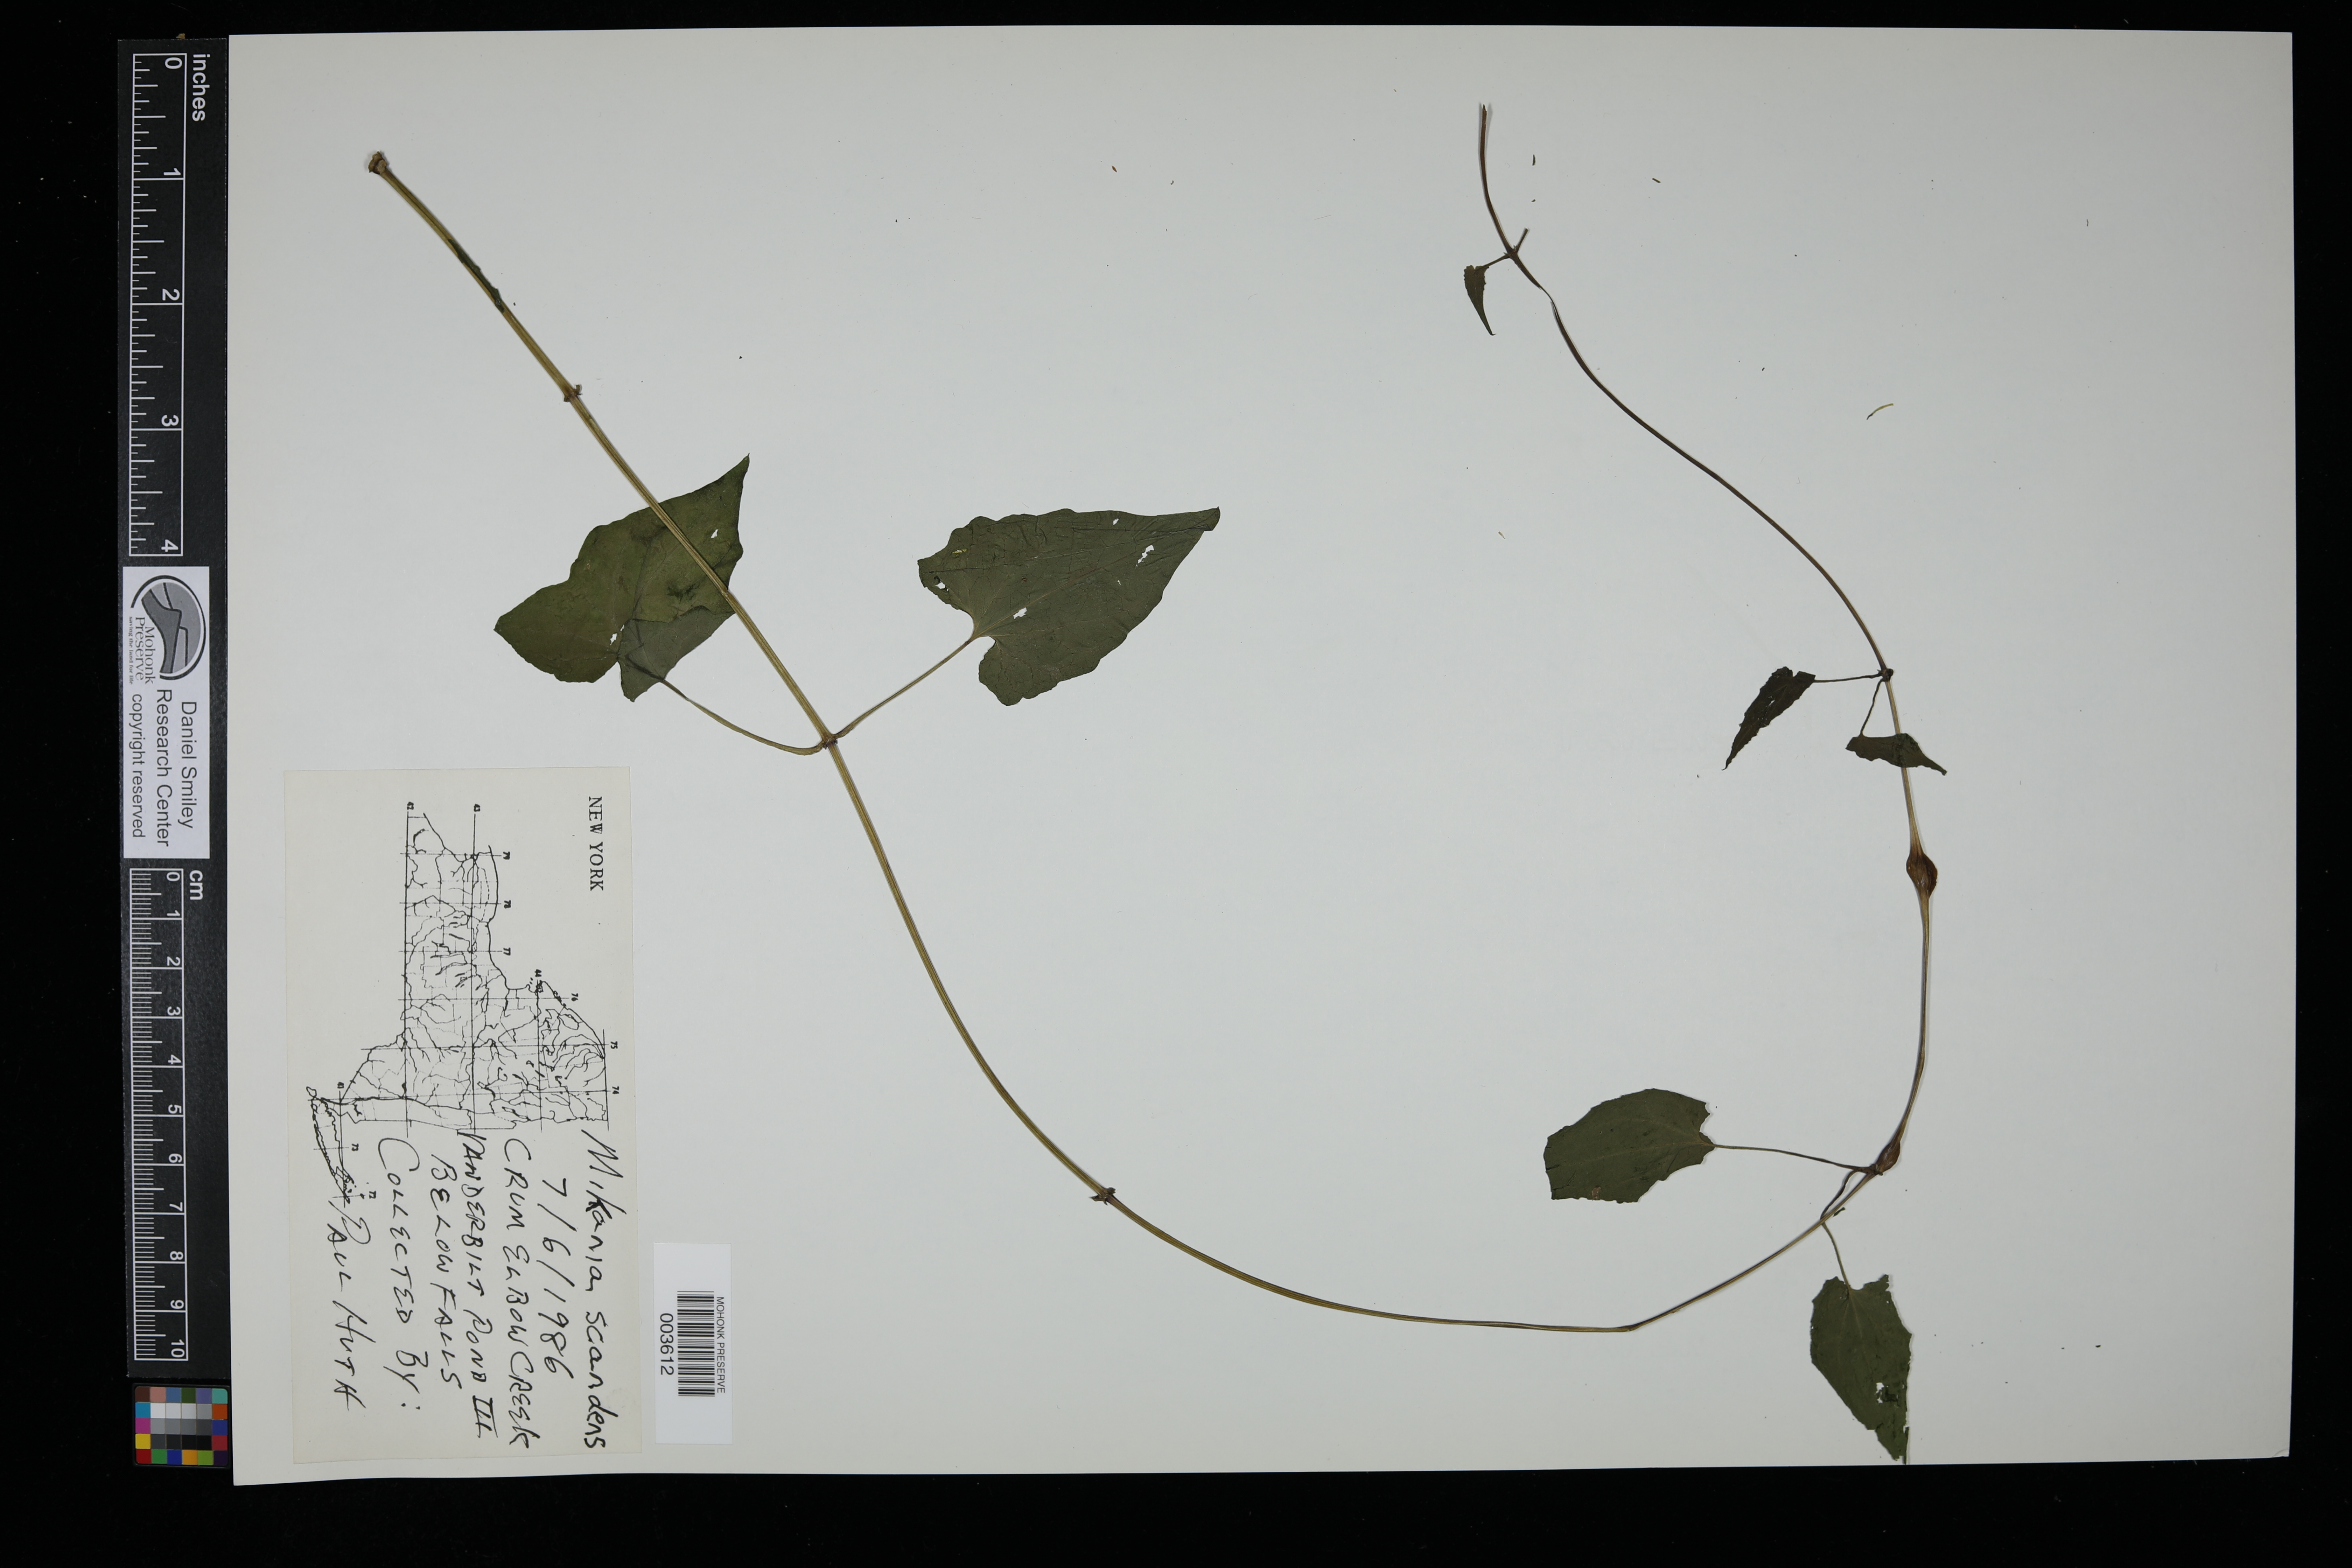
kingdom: Plantae
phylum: Tracheophyta
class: Magnoliopsida
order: Asterales
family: Asteraceae
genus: Mikania
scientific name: Mikania scandens
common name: Climbing hempvine
